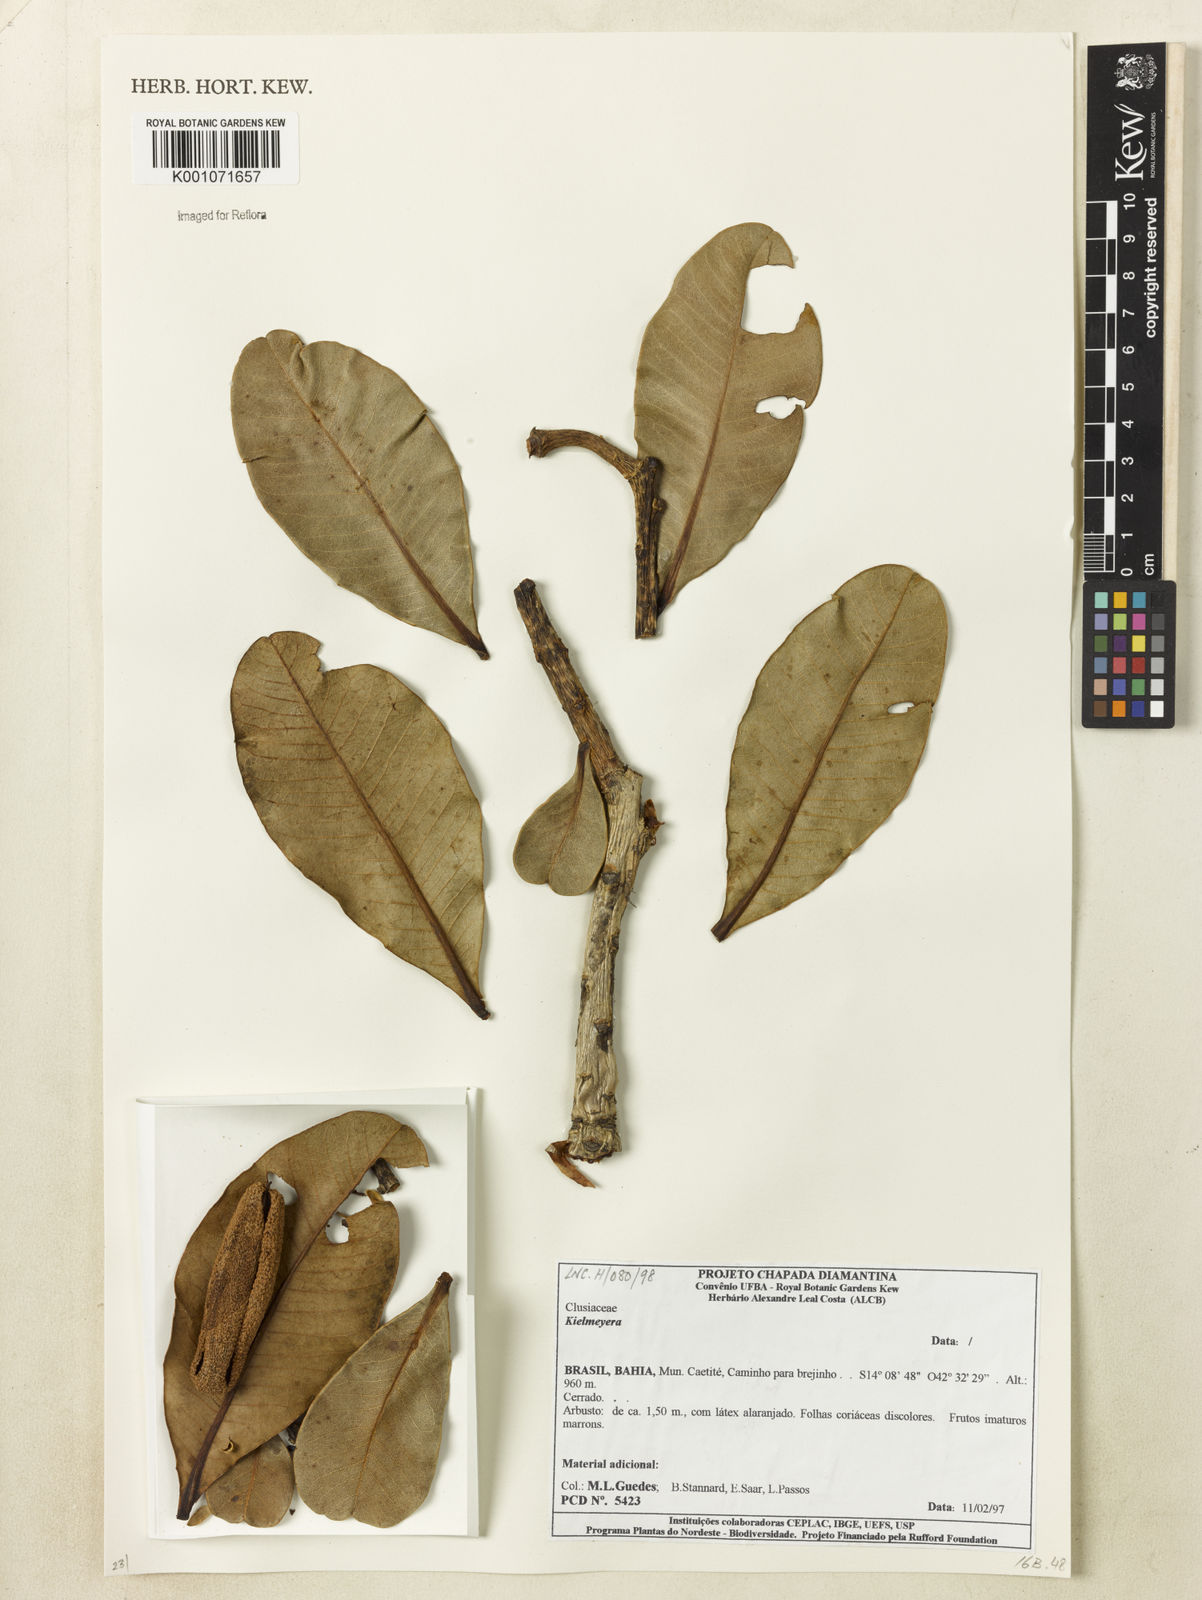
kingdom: Plantae
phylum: Tracheophyta
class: Magnoliopsida
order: Malpighiales
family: Calophyllaceae
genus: Kielmeyera
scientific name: Kielmeyera
